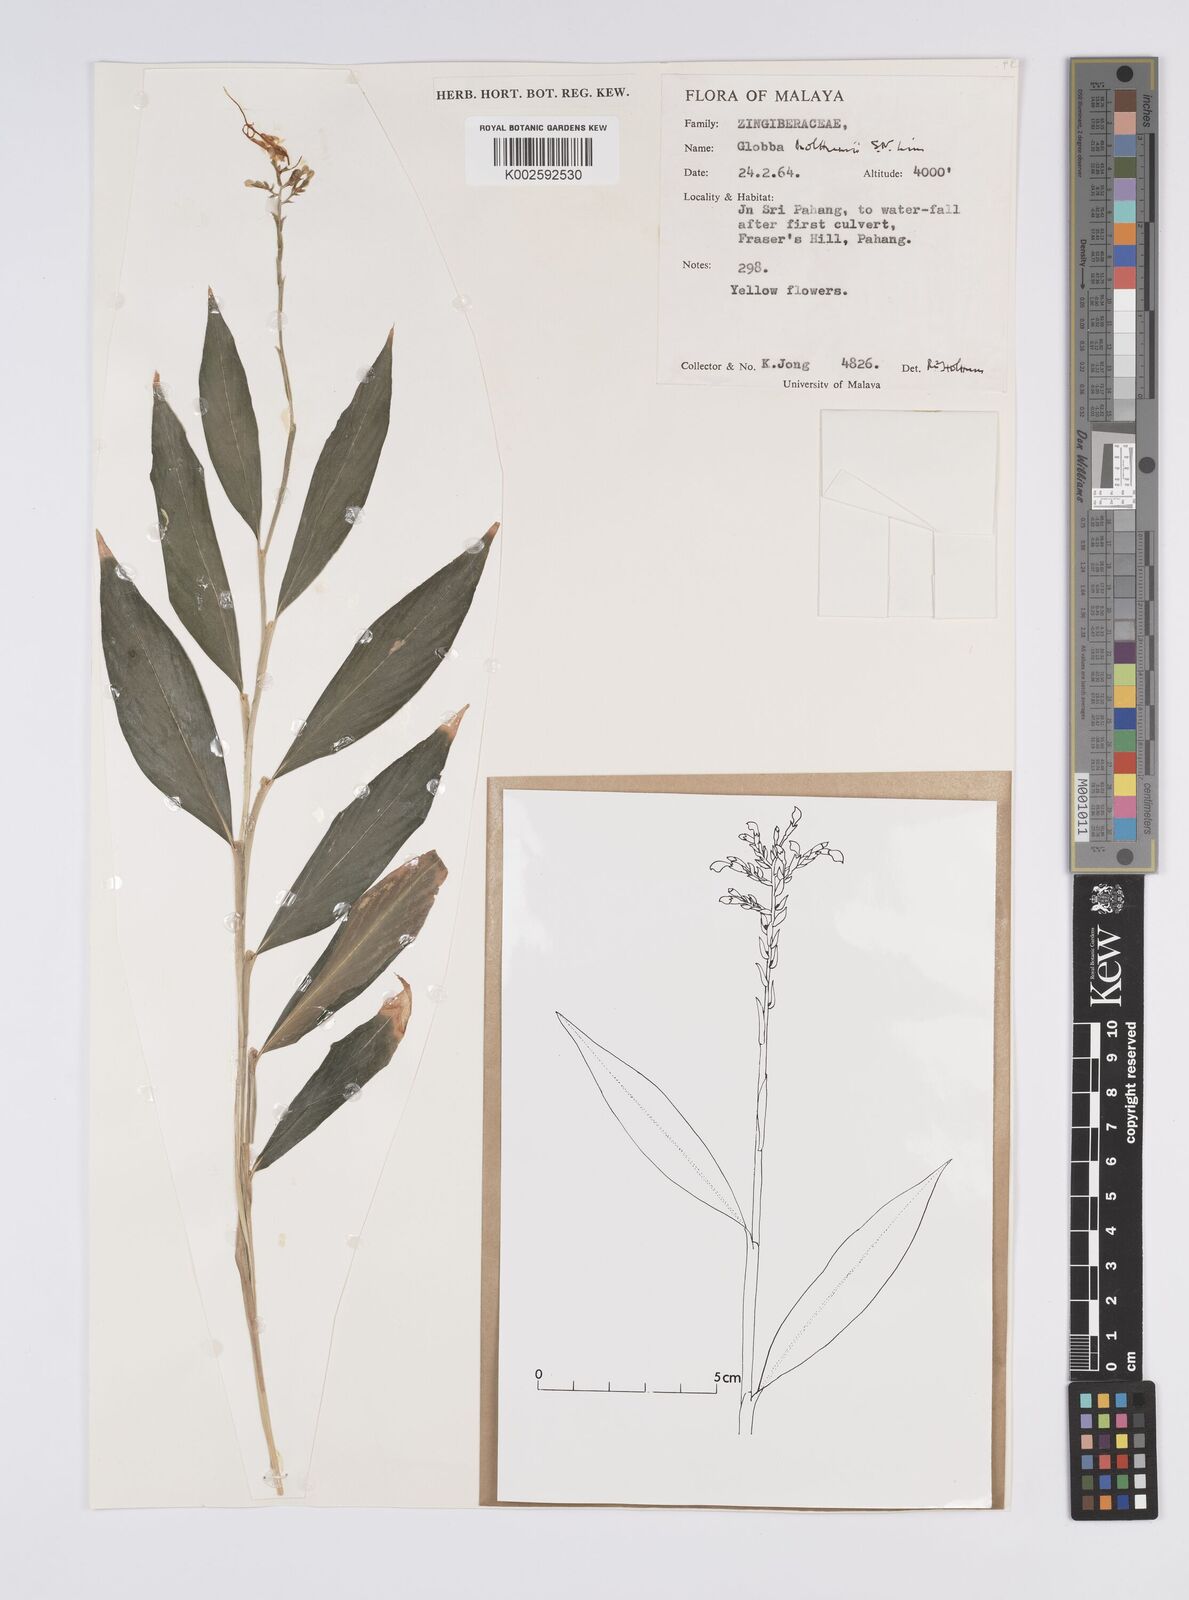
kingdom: Plantae
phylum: Tracheophyta
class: Liliopsida
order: Zingiberales
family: Zingiberaceae
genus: Globba
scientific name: Globba holttumii
